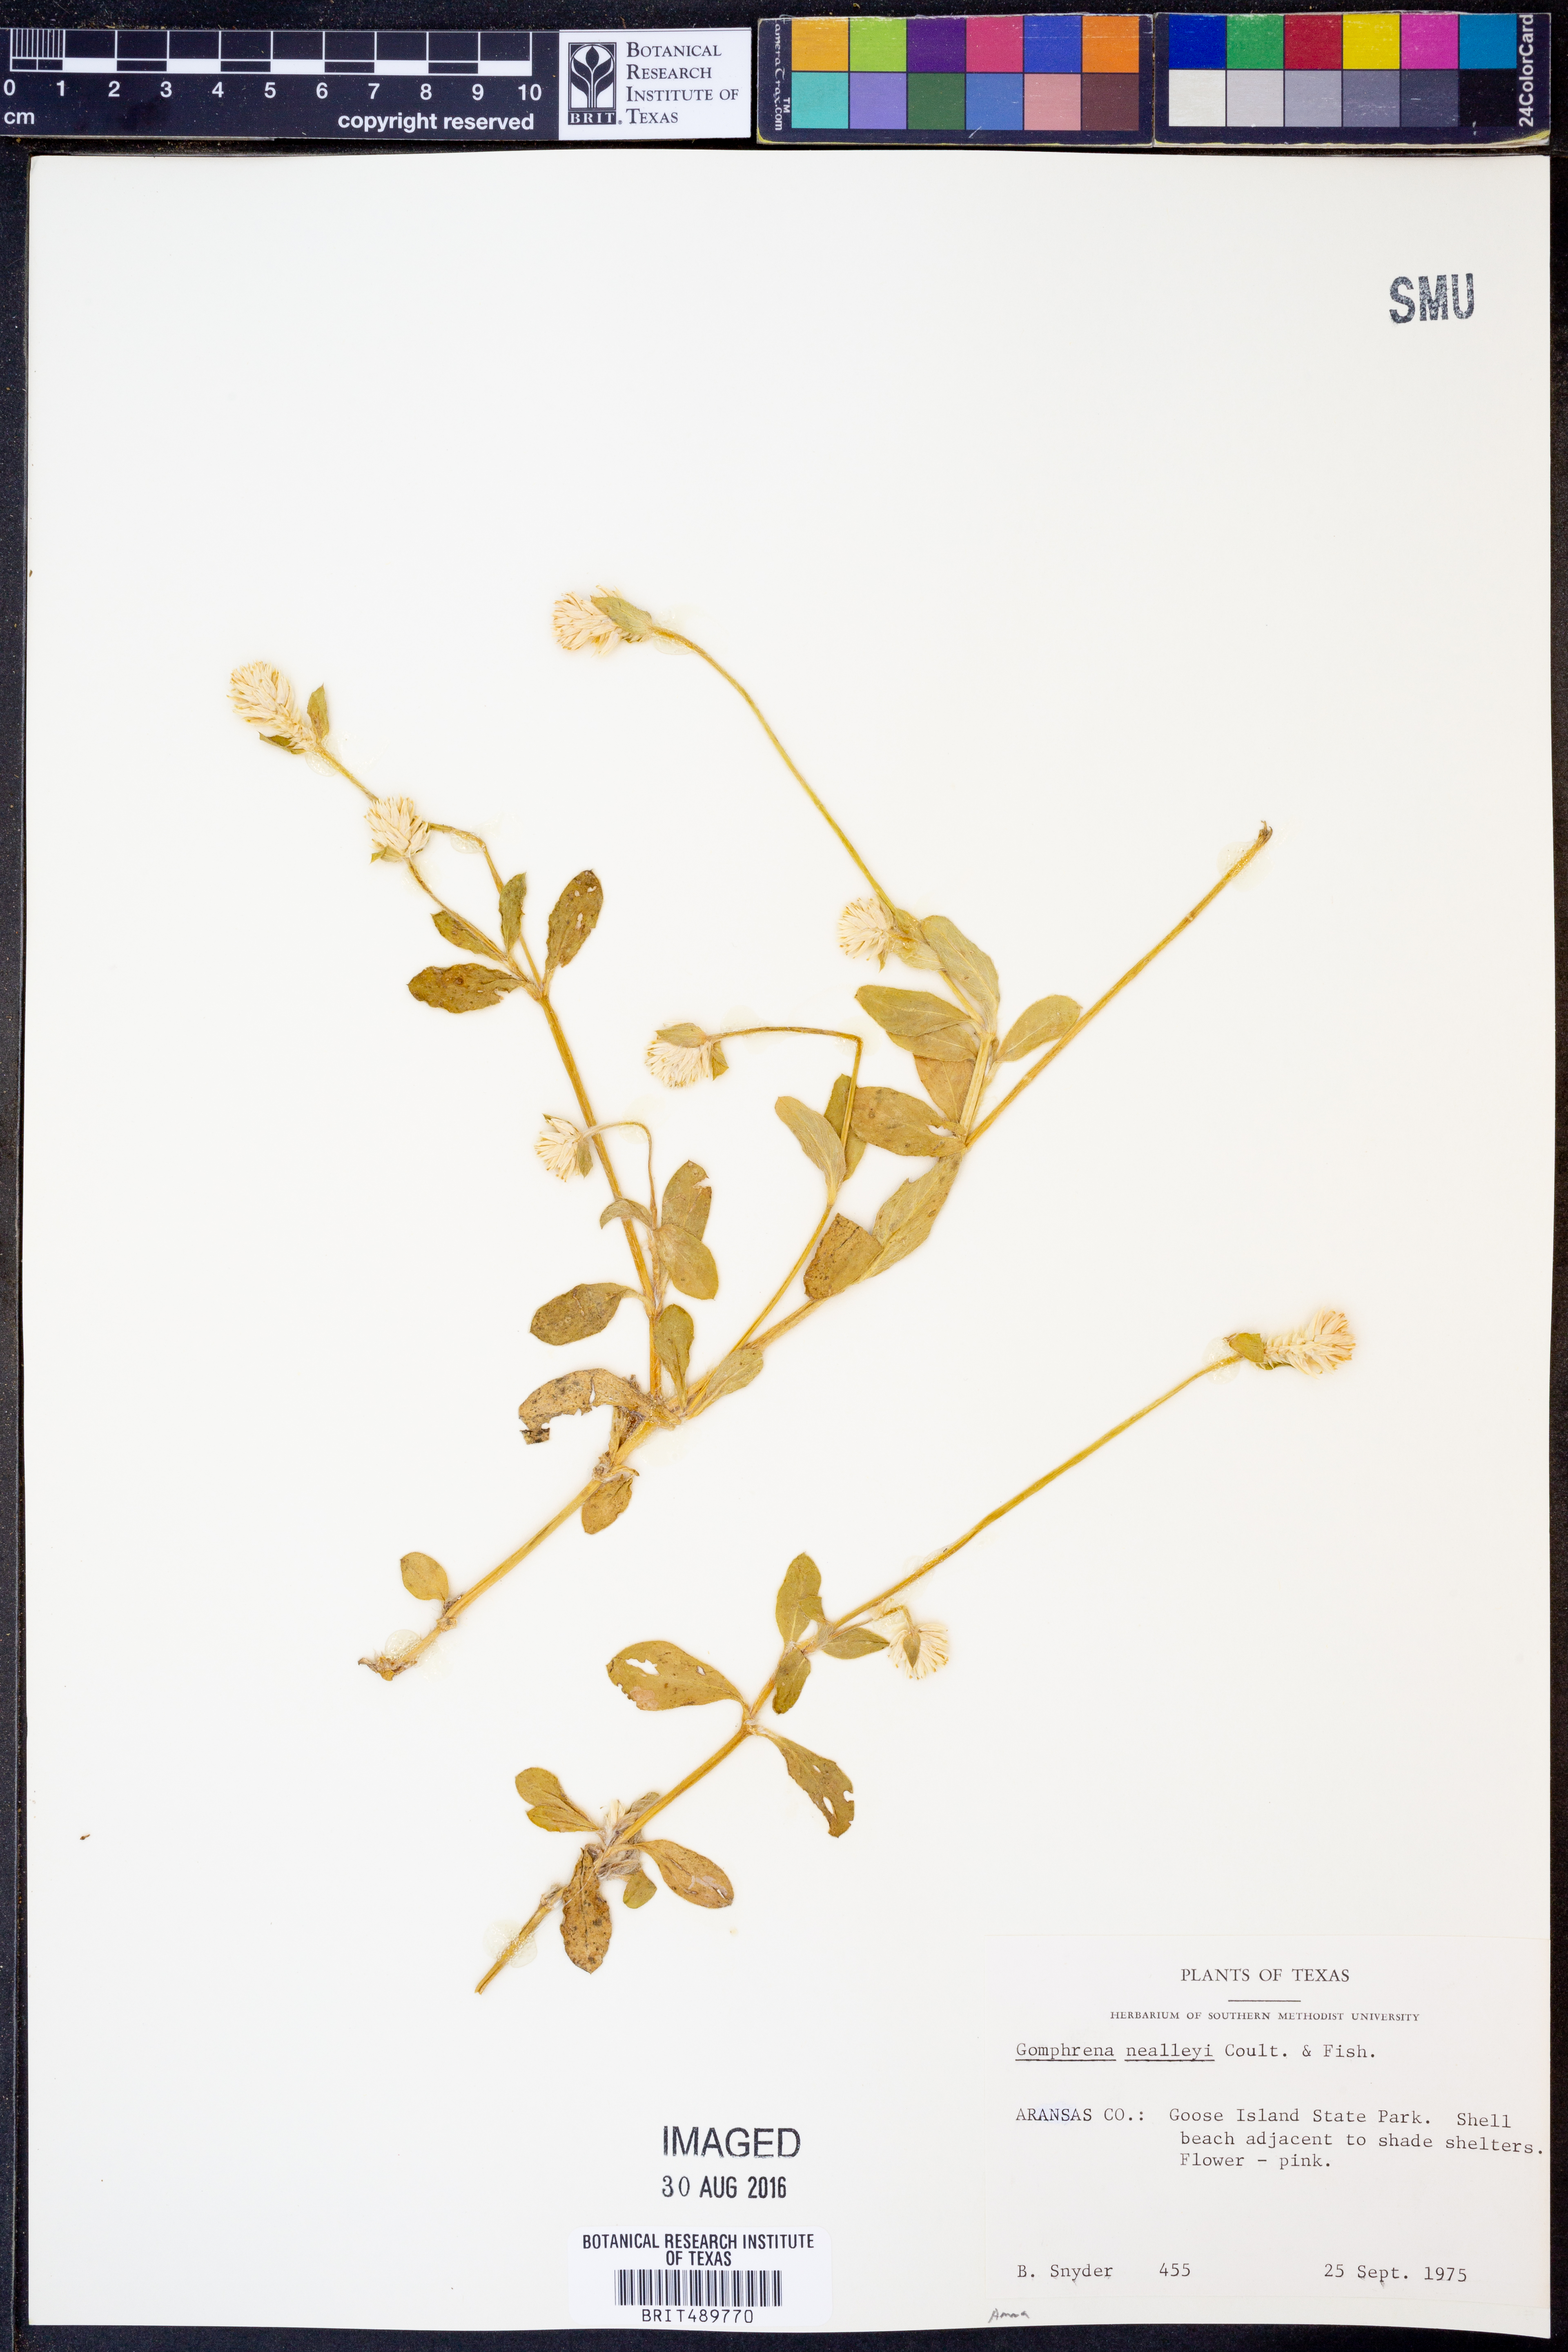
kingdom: Plantae
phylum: Tracheophyta
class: Magnoliopsida
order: Caryophyllales
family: Amaranthaceae
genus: Gomphrena
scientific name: Gomphrena nealleyi
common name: Nealley's globe-amaranth
